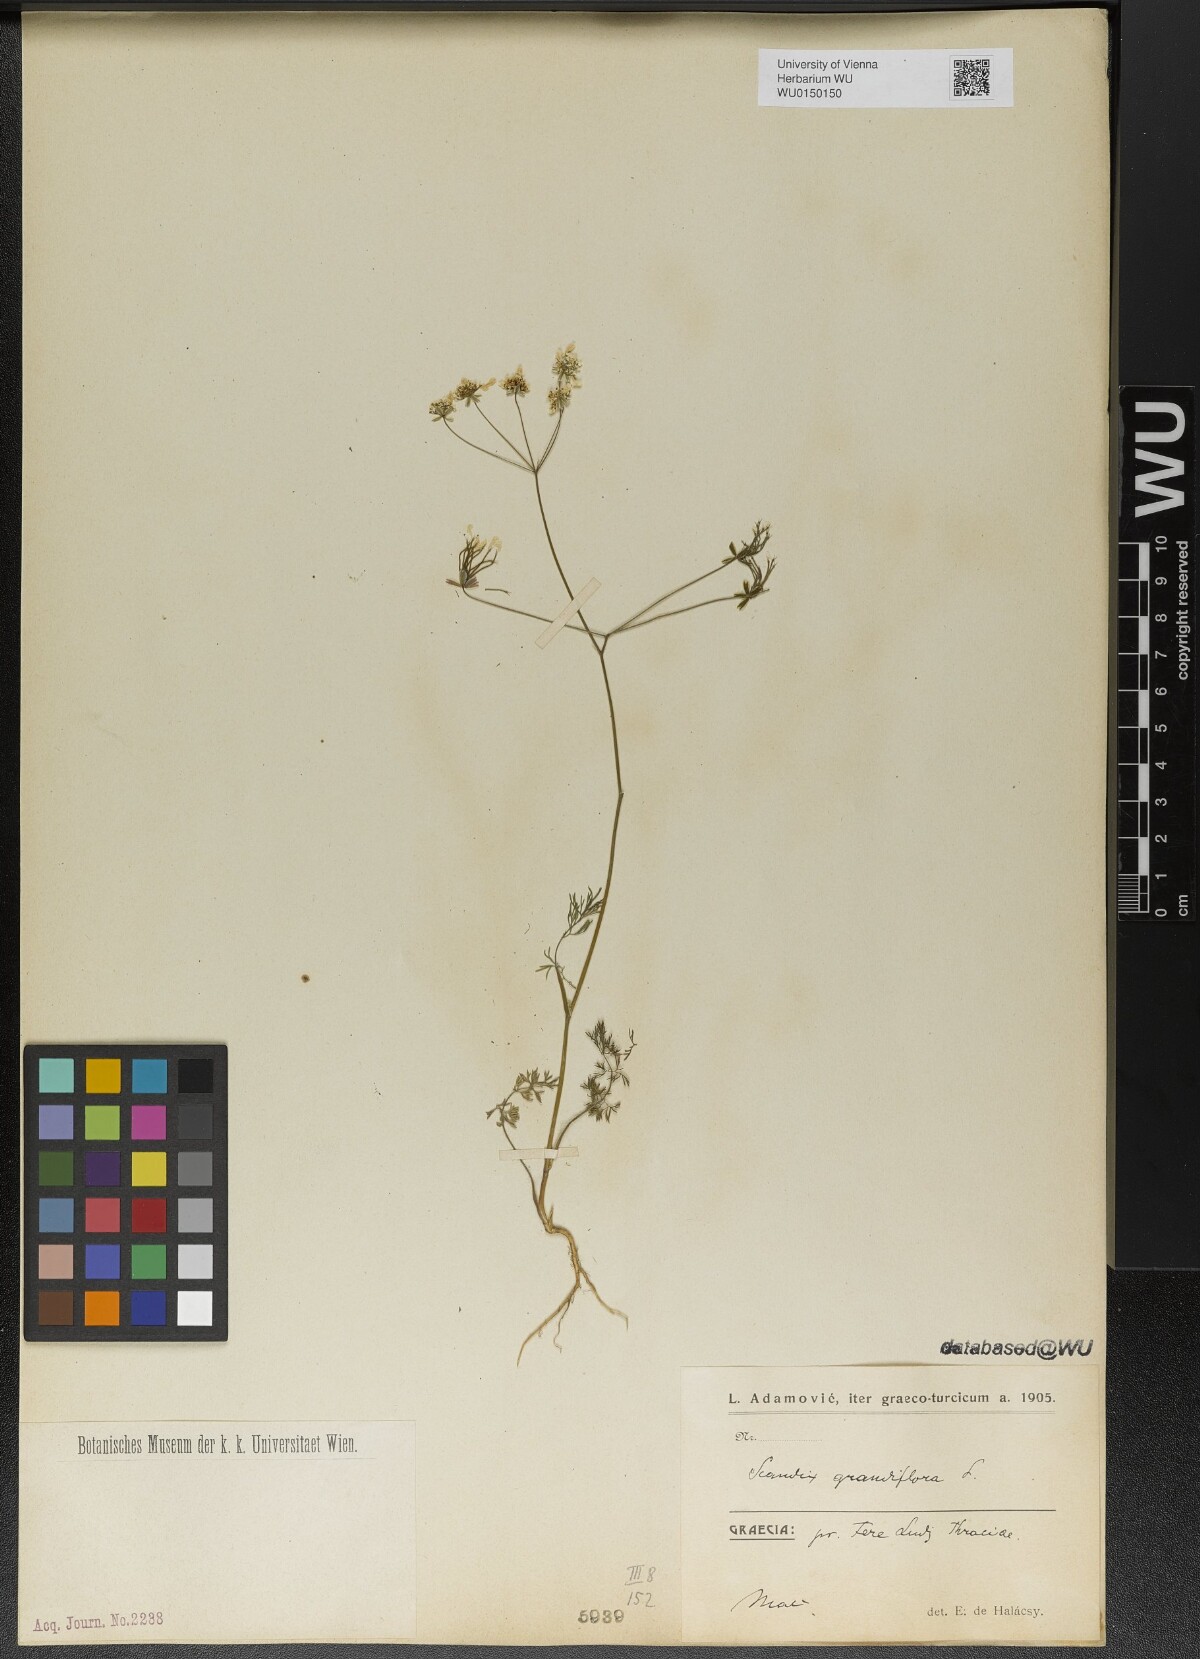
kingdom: Plantae
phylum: Tracheophyta
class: Magnoliopsida
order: Apiales
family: Apiaceae
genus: Scandix
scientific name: Scandix australis
